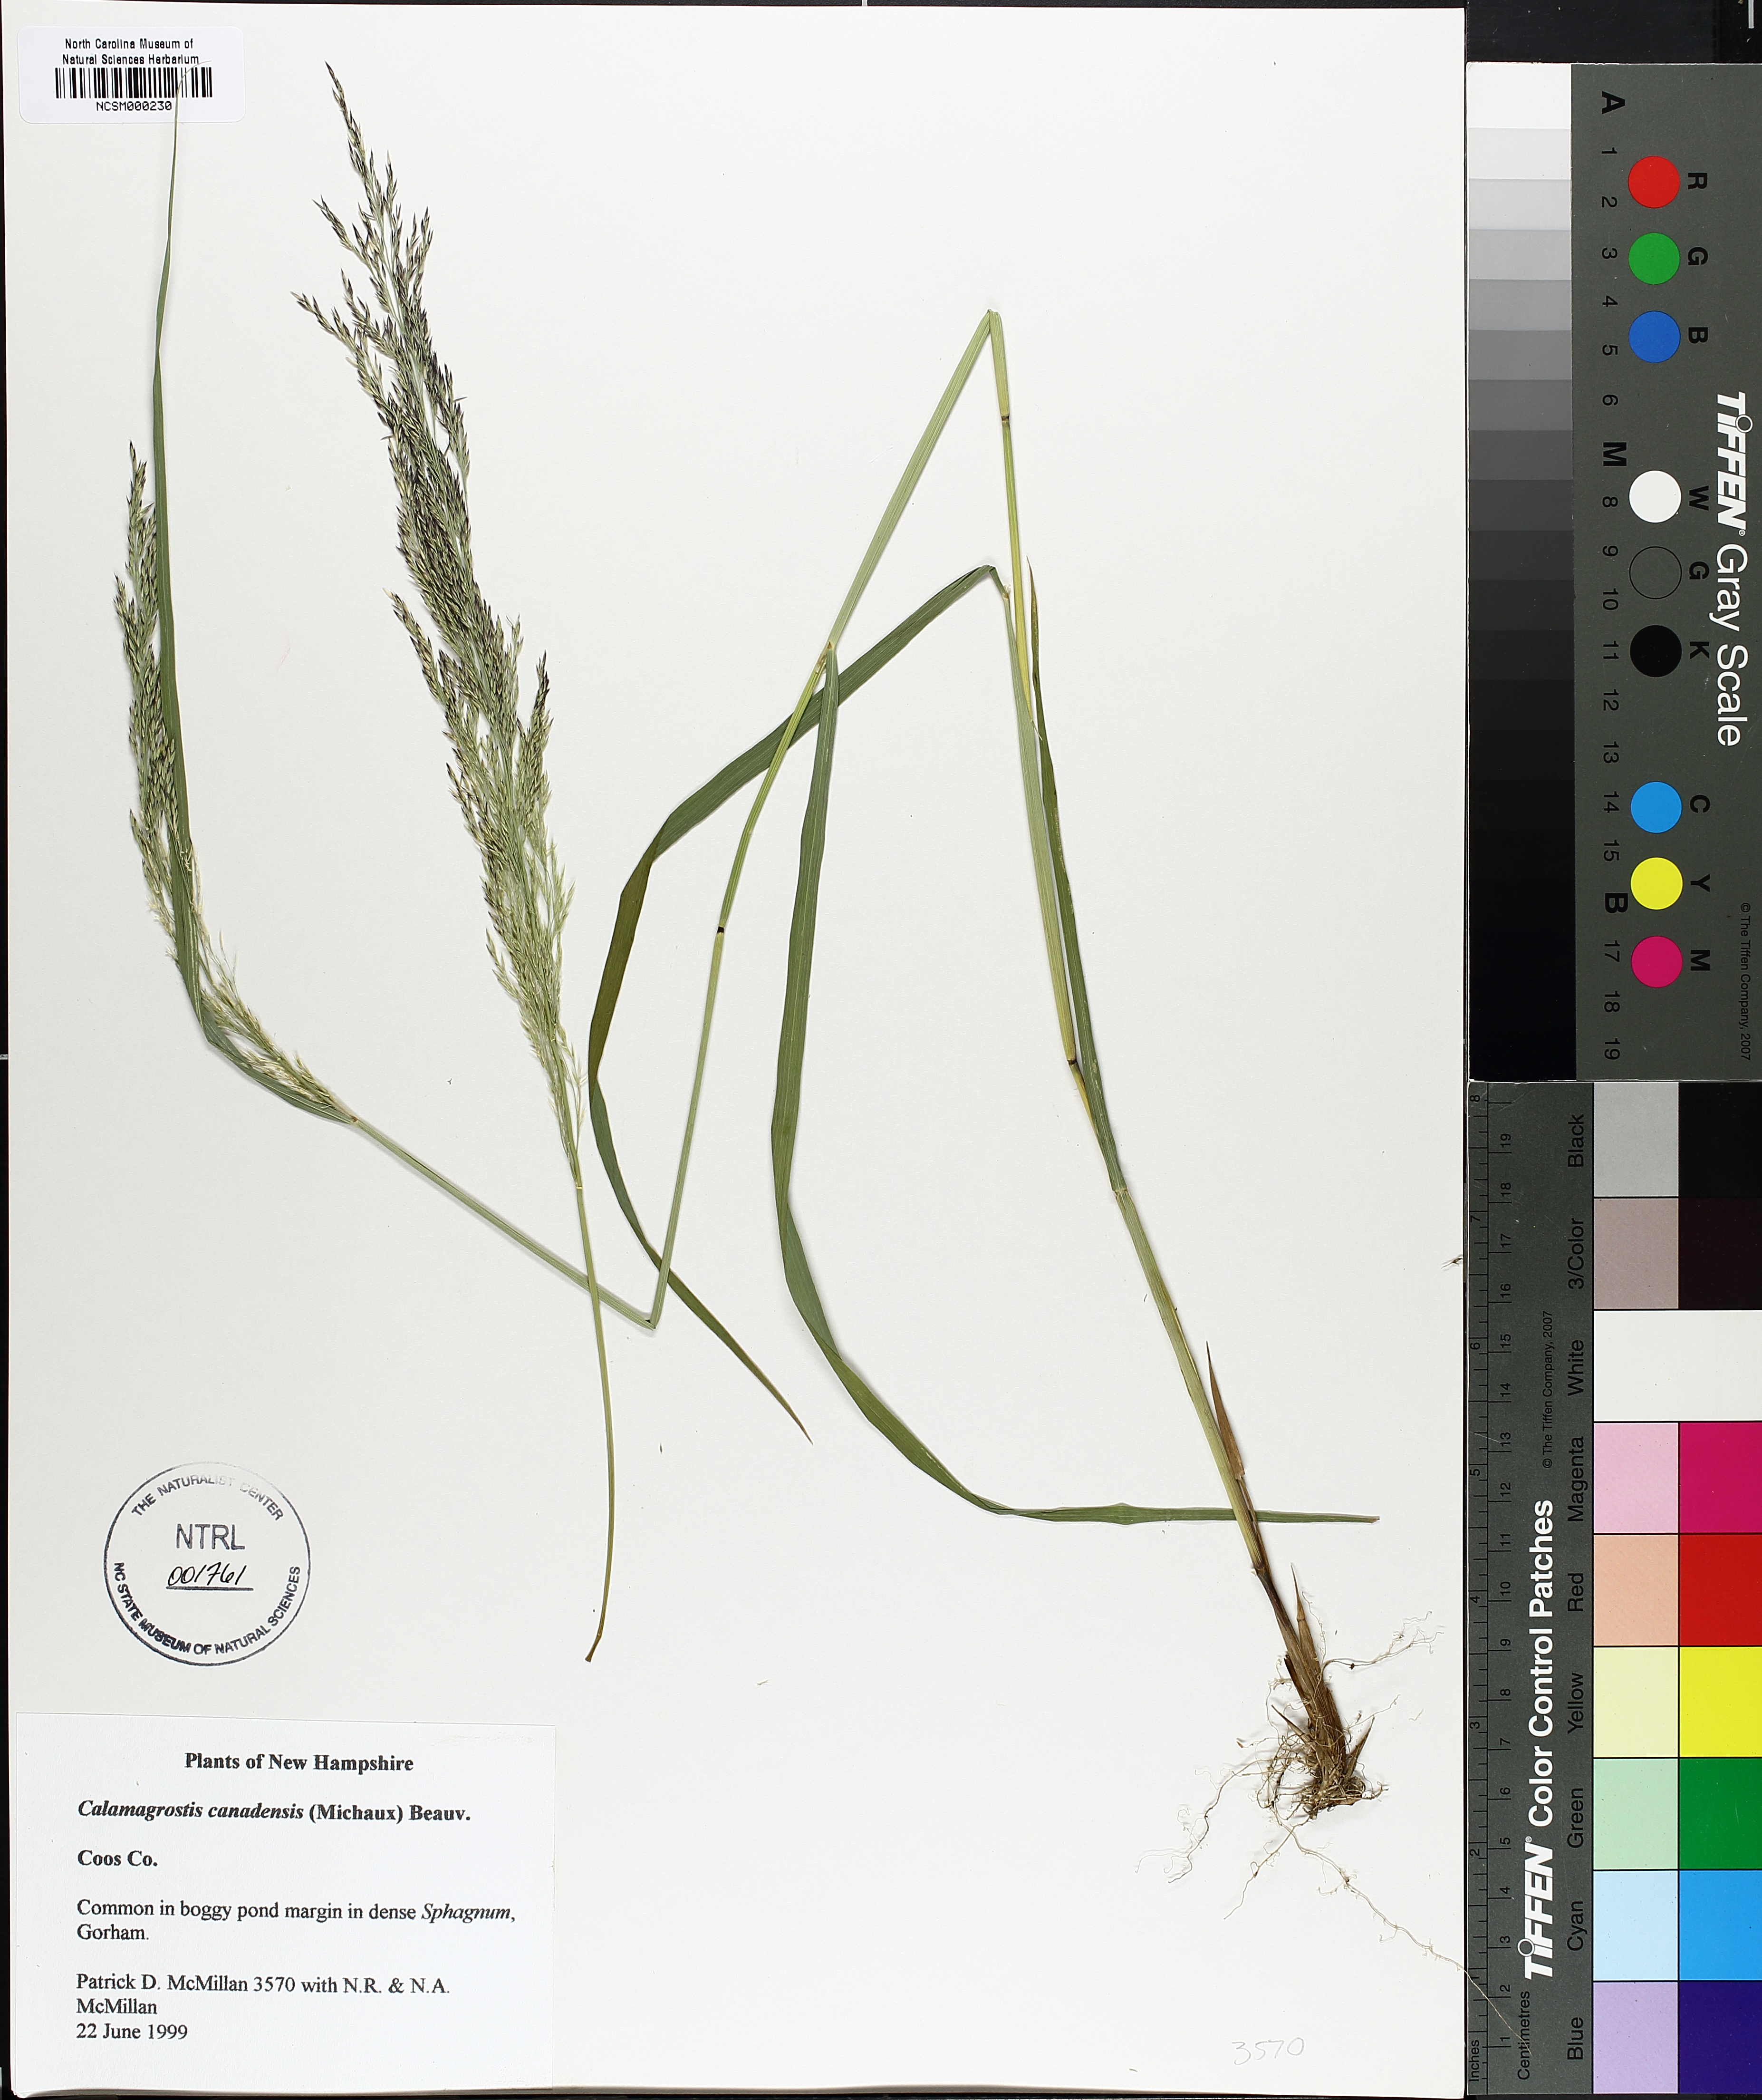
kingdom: Plantae
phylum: Tracheophyta
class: Liliopsida
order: Poales
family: Poaceae
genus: Calamagrostis
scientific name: Calamagrostis canadensis
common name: Canada bluejoint
